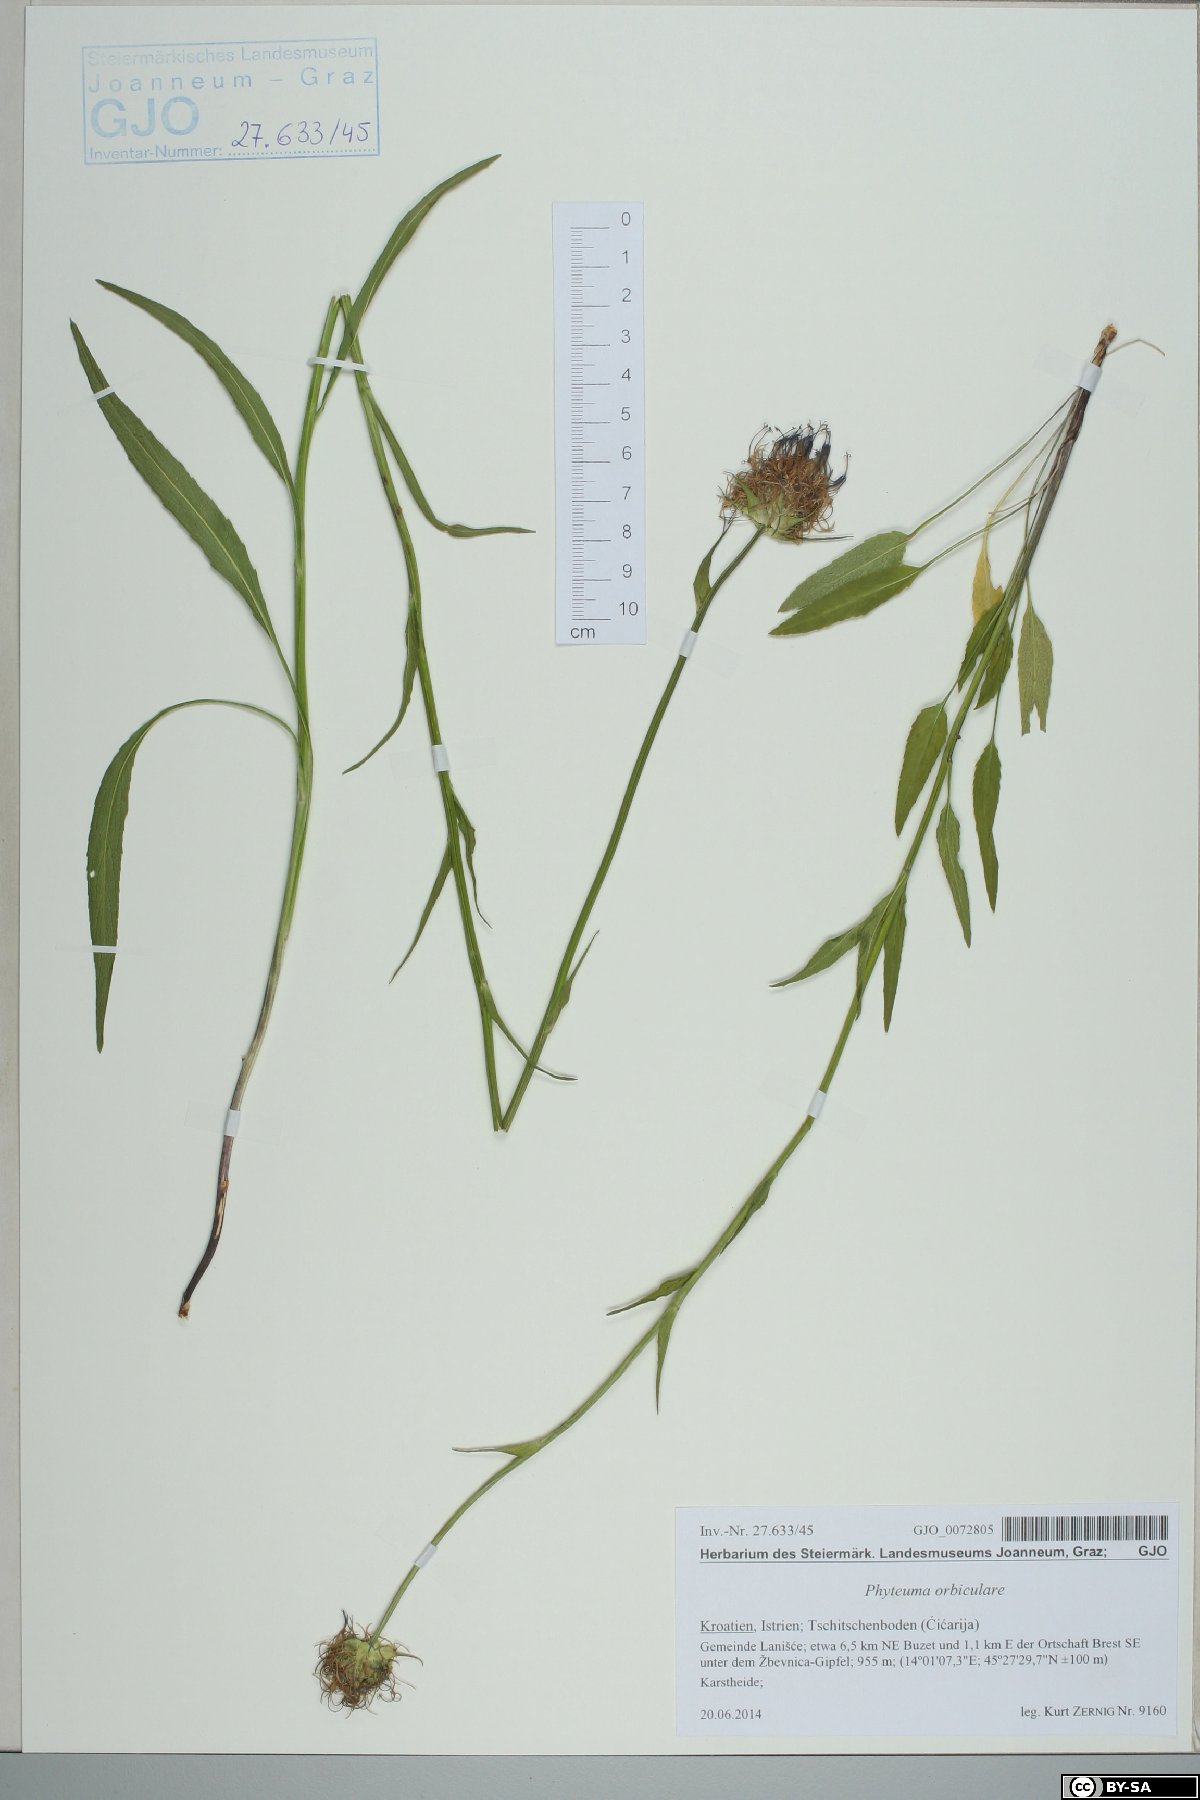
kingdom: Plantae
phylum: Tracheophyta
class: Magnoliopsida
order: Asterales
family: Campanulaceae
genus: Phyteuma
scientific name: Phyteuma orbiculare
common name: Round-headed rampion
